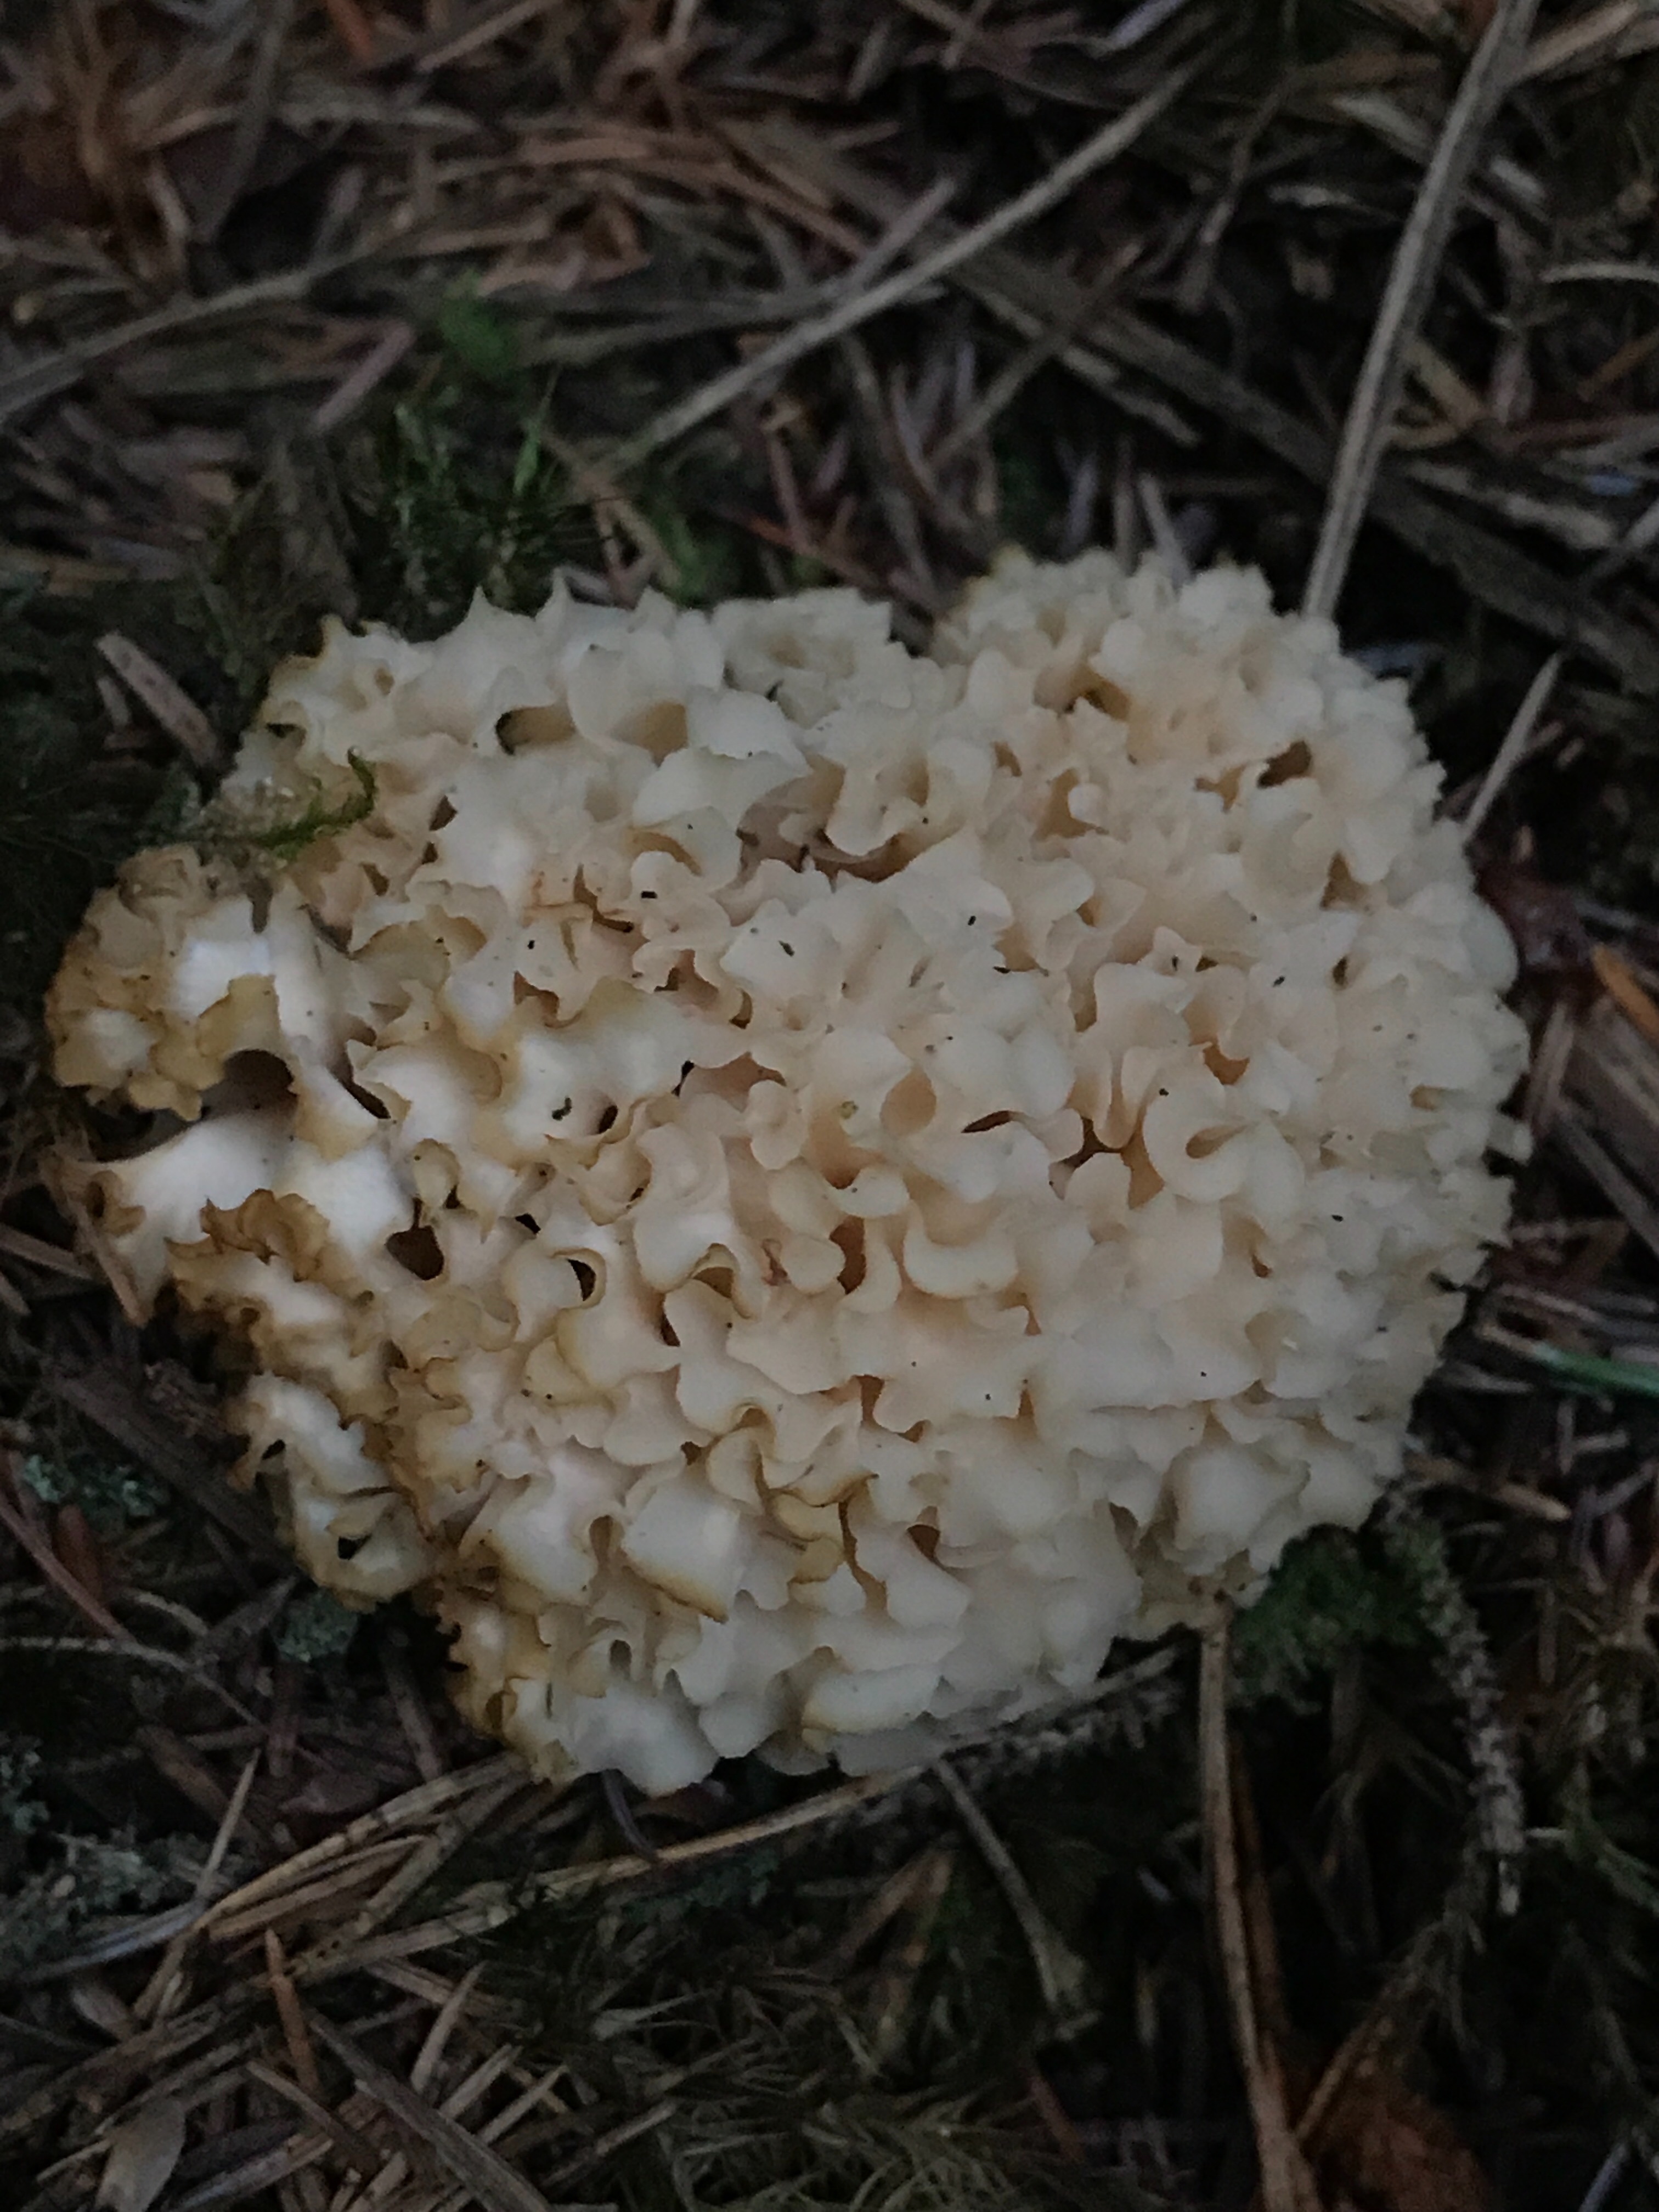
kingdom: Fungi
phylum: Basidiomycota
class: Agaricomycetes
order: Polyporales
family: Sparassidaceae
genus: Sparassis
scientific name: Sparassis crispa
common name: kruset blomkålssvamp
